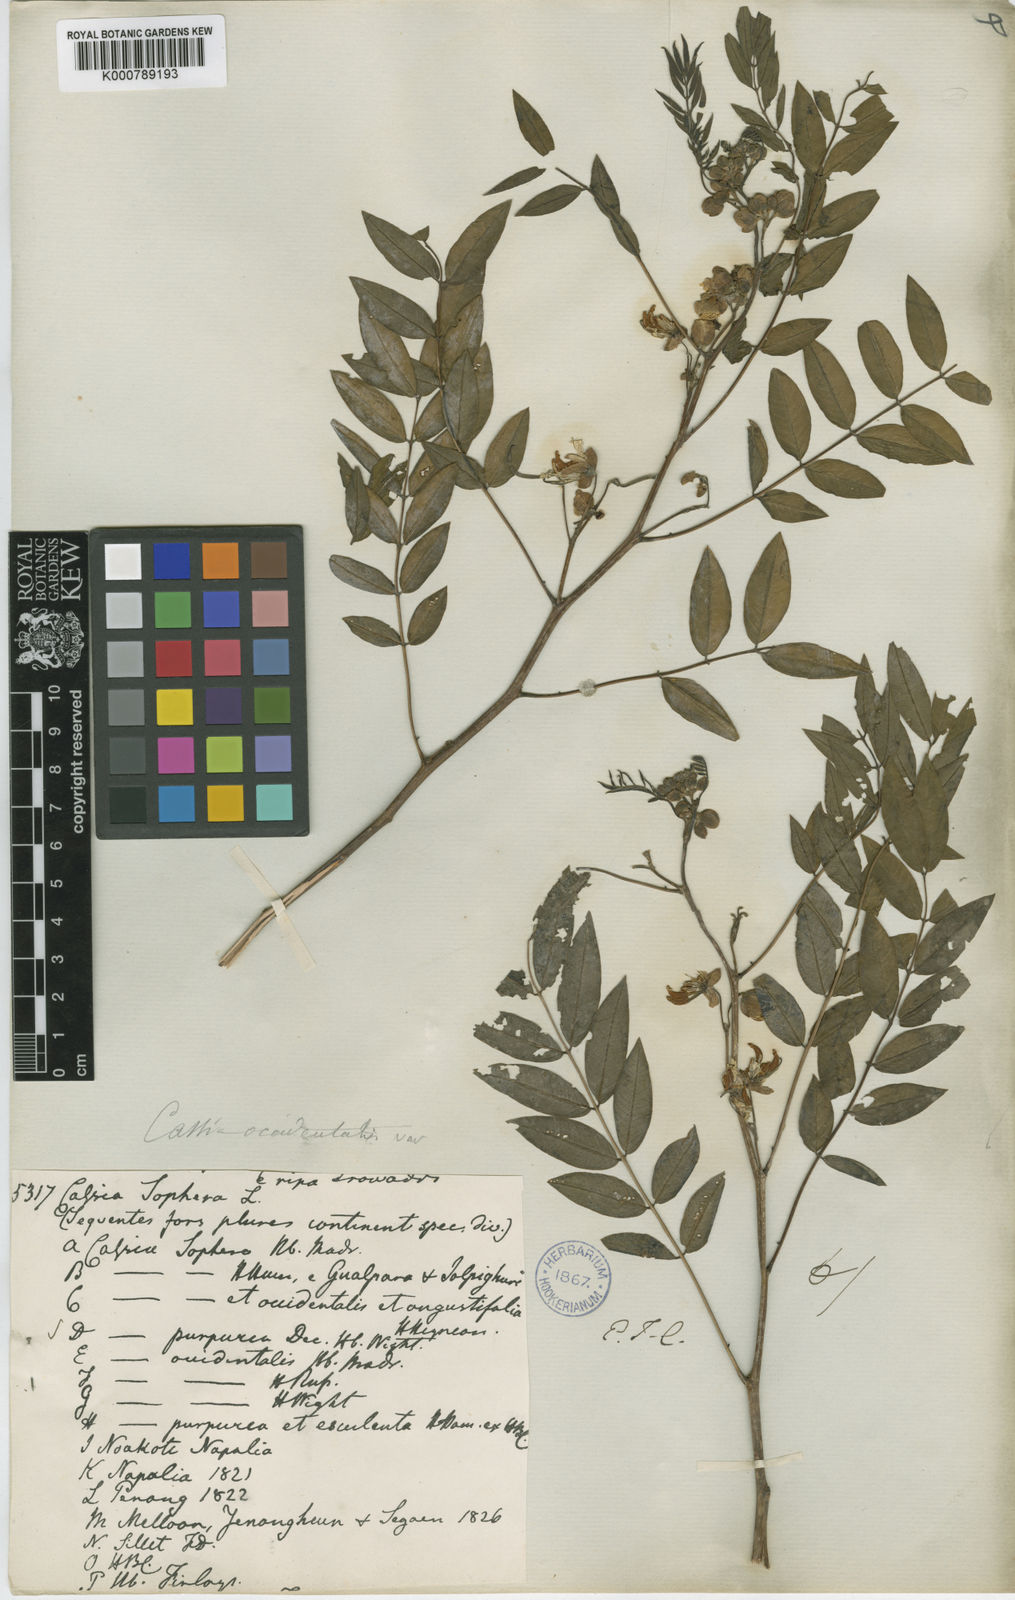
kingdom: Plantae
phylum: Tracheophyta
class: Magnoliopsida
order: Fabales
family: Fabaceae
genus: Senna
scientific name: Senna sophera
